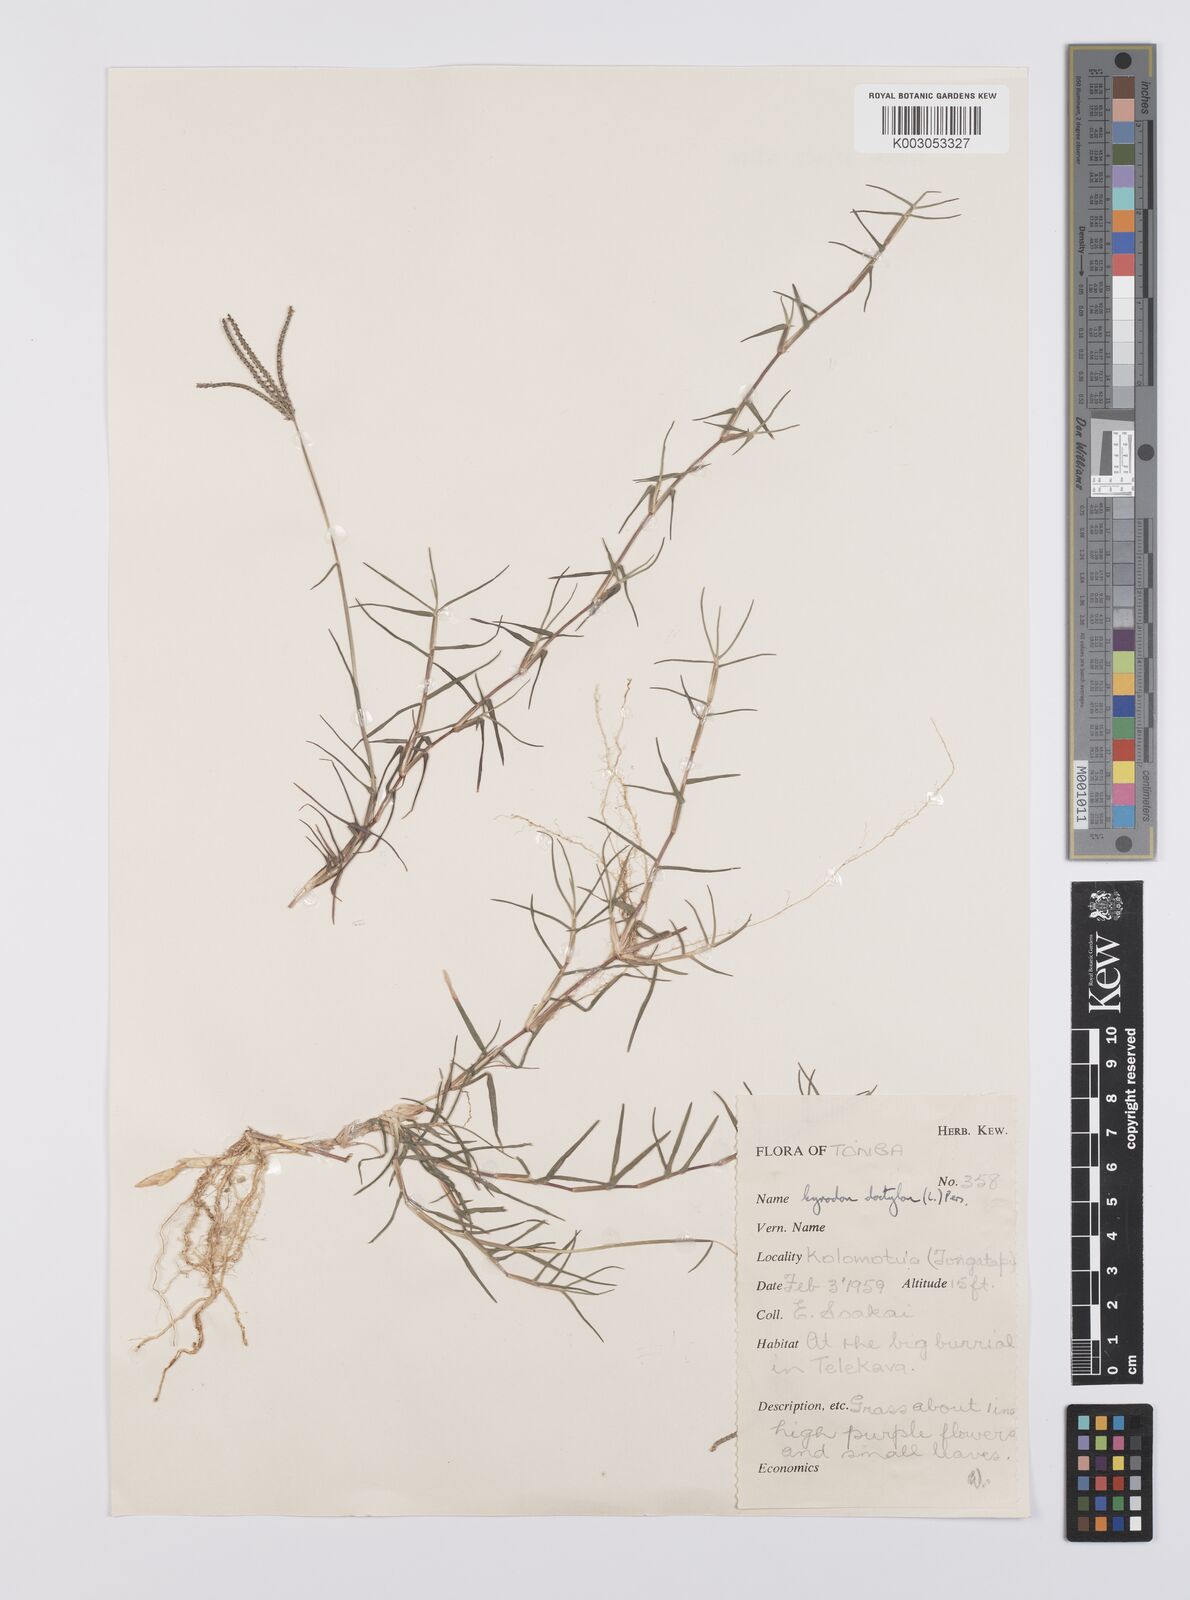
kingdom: Plantae
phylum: Tracheophyta
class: Liliopsida
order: Poales
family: Poaceae
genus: Cynodon
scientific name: Cynodon dactylon
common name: Bermuda grass
